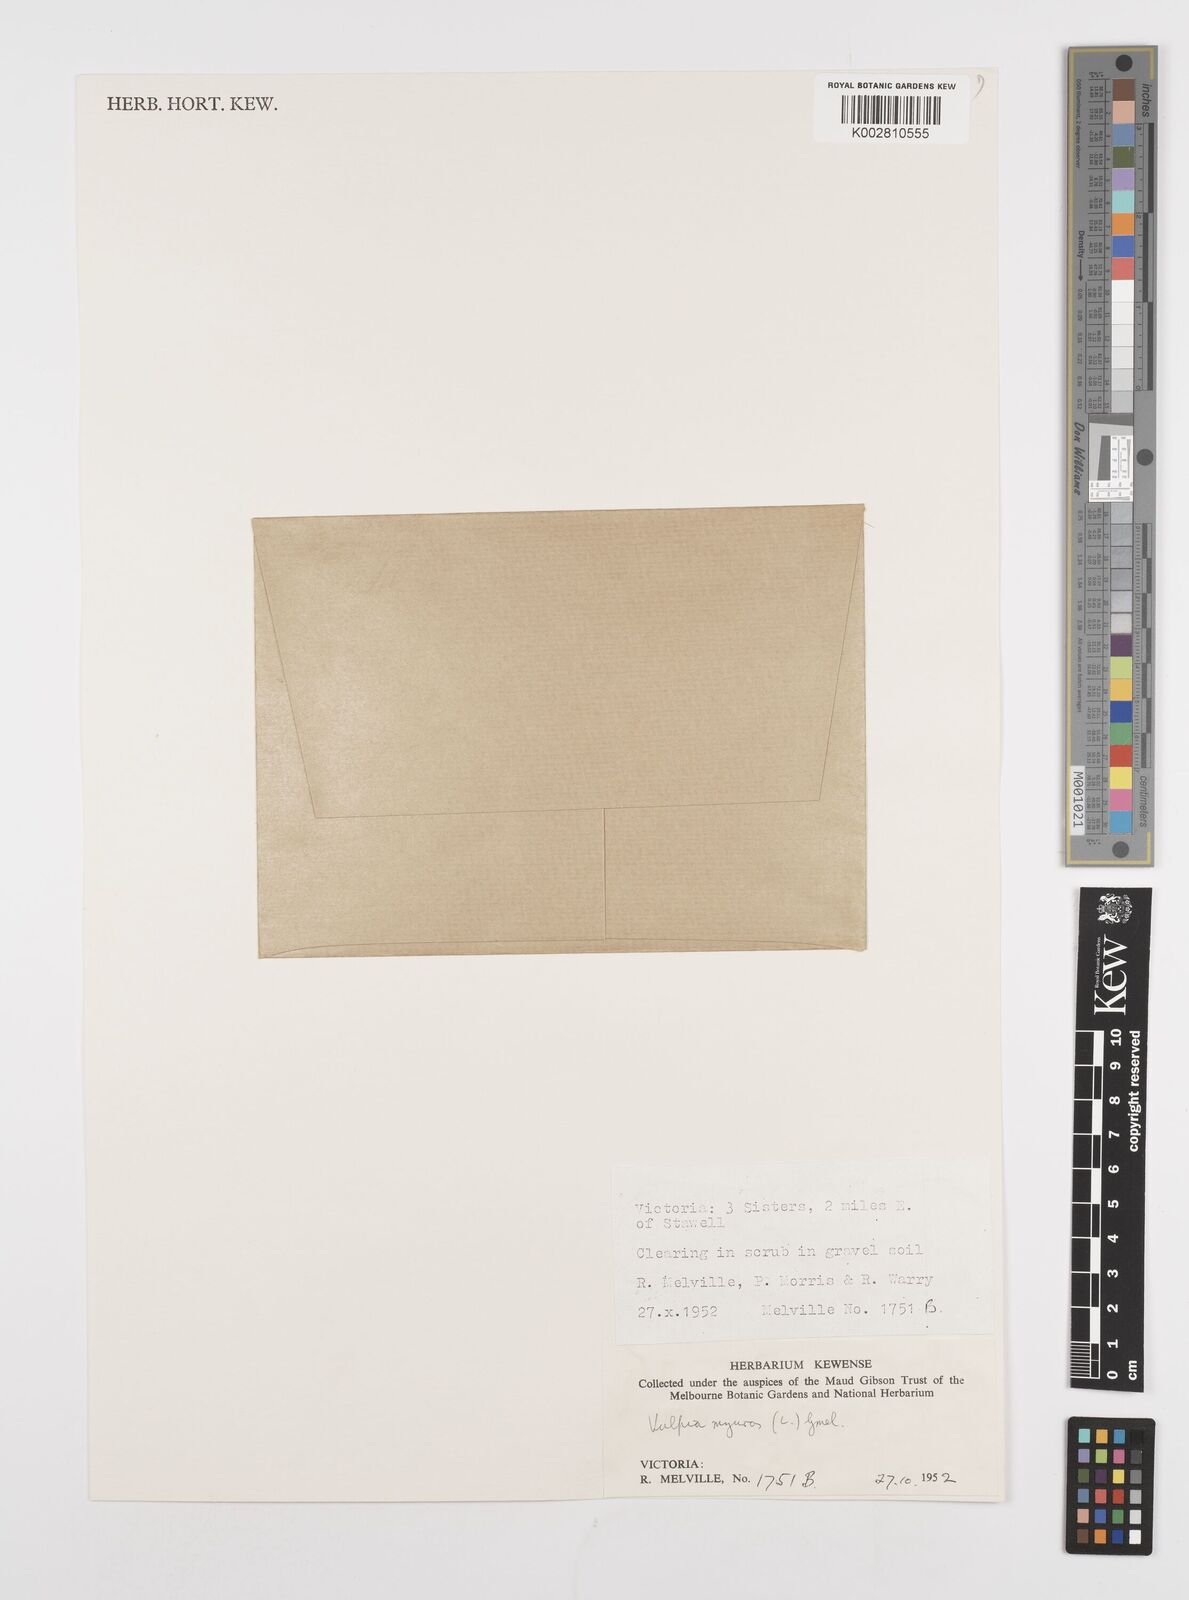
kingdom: Plantae
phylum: Tracheophyta
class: Liliopsida
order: Poales
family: Poaceae
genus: Festuca
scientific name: Festuca myuros
